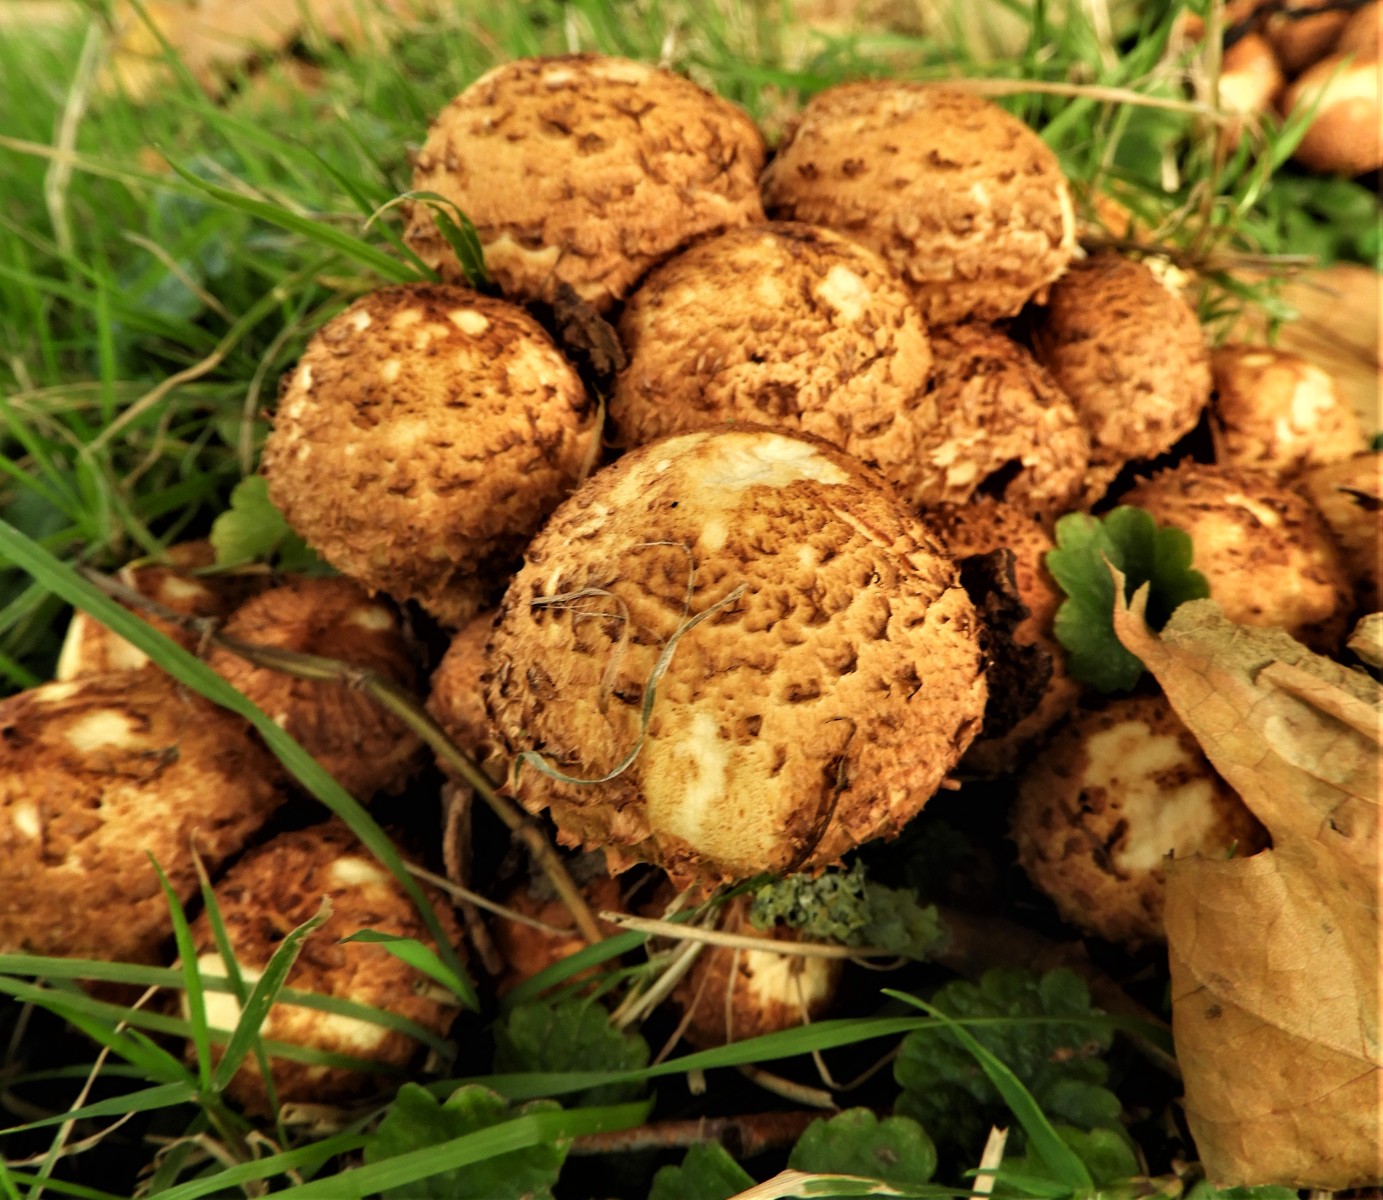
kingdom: Fungi
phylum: Basidiomycota
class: Agaricomycetes
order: Agaricales
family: Strophariaceae
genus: Pholiota
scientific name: Pholiota squarrosa
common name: krumskællet skælhat
